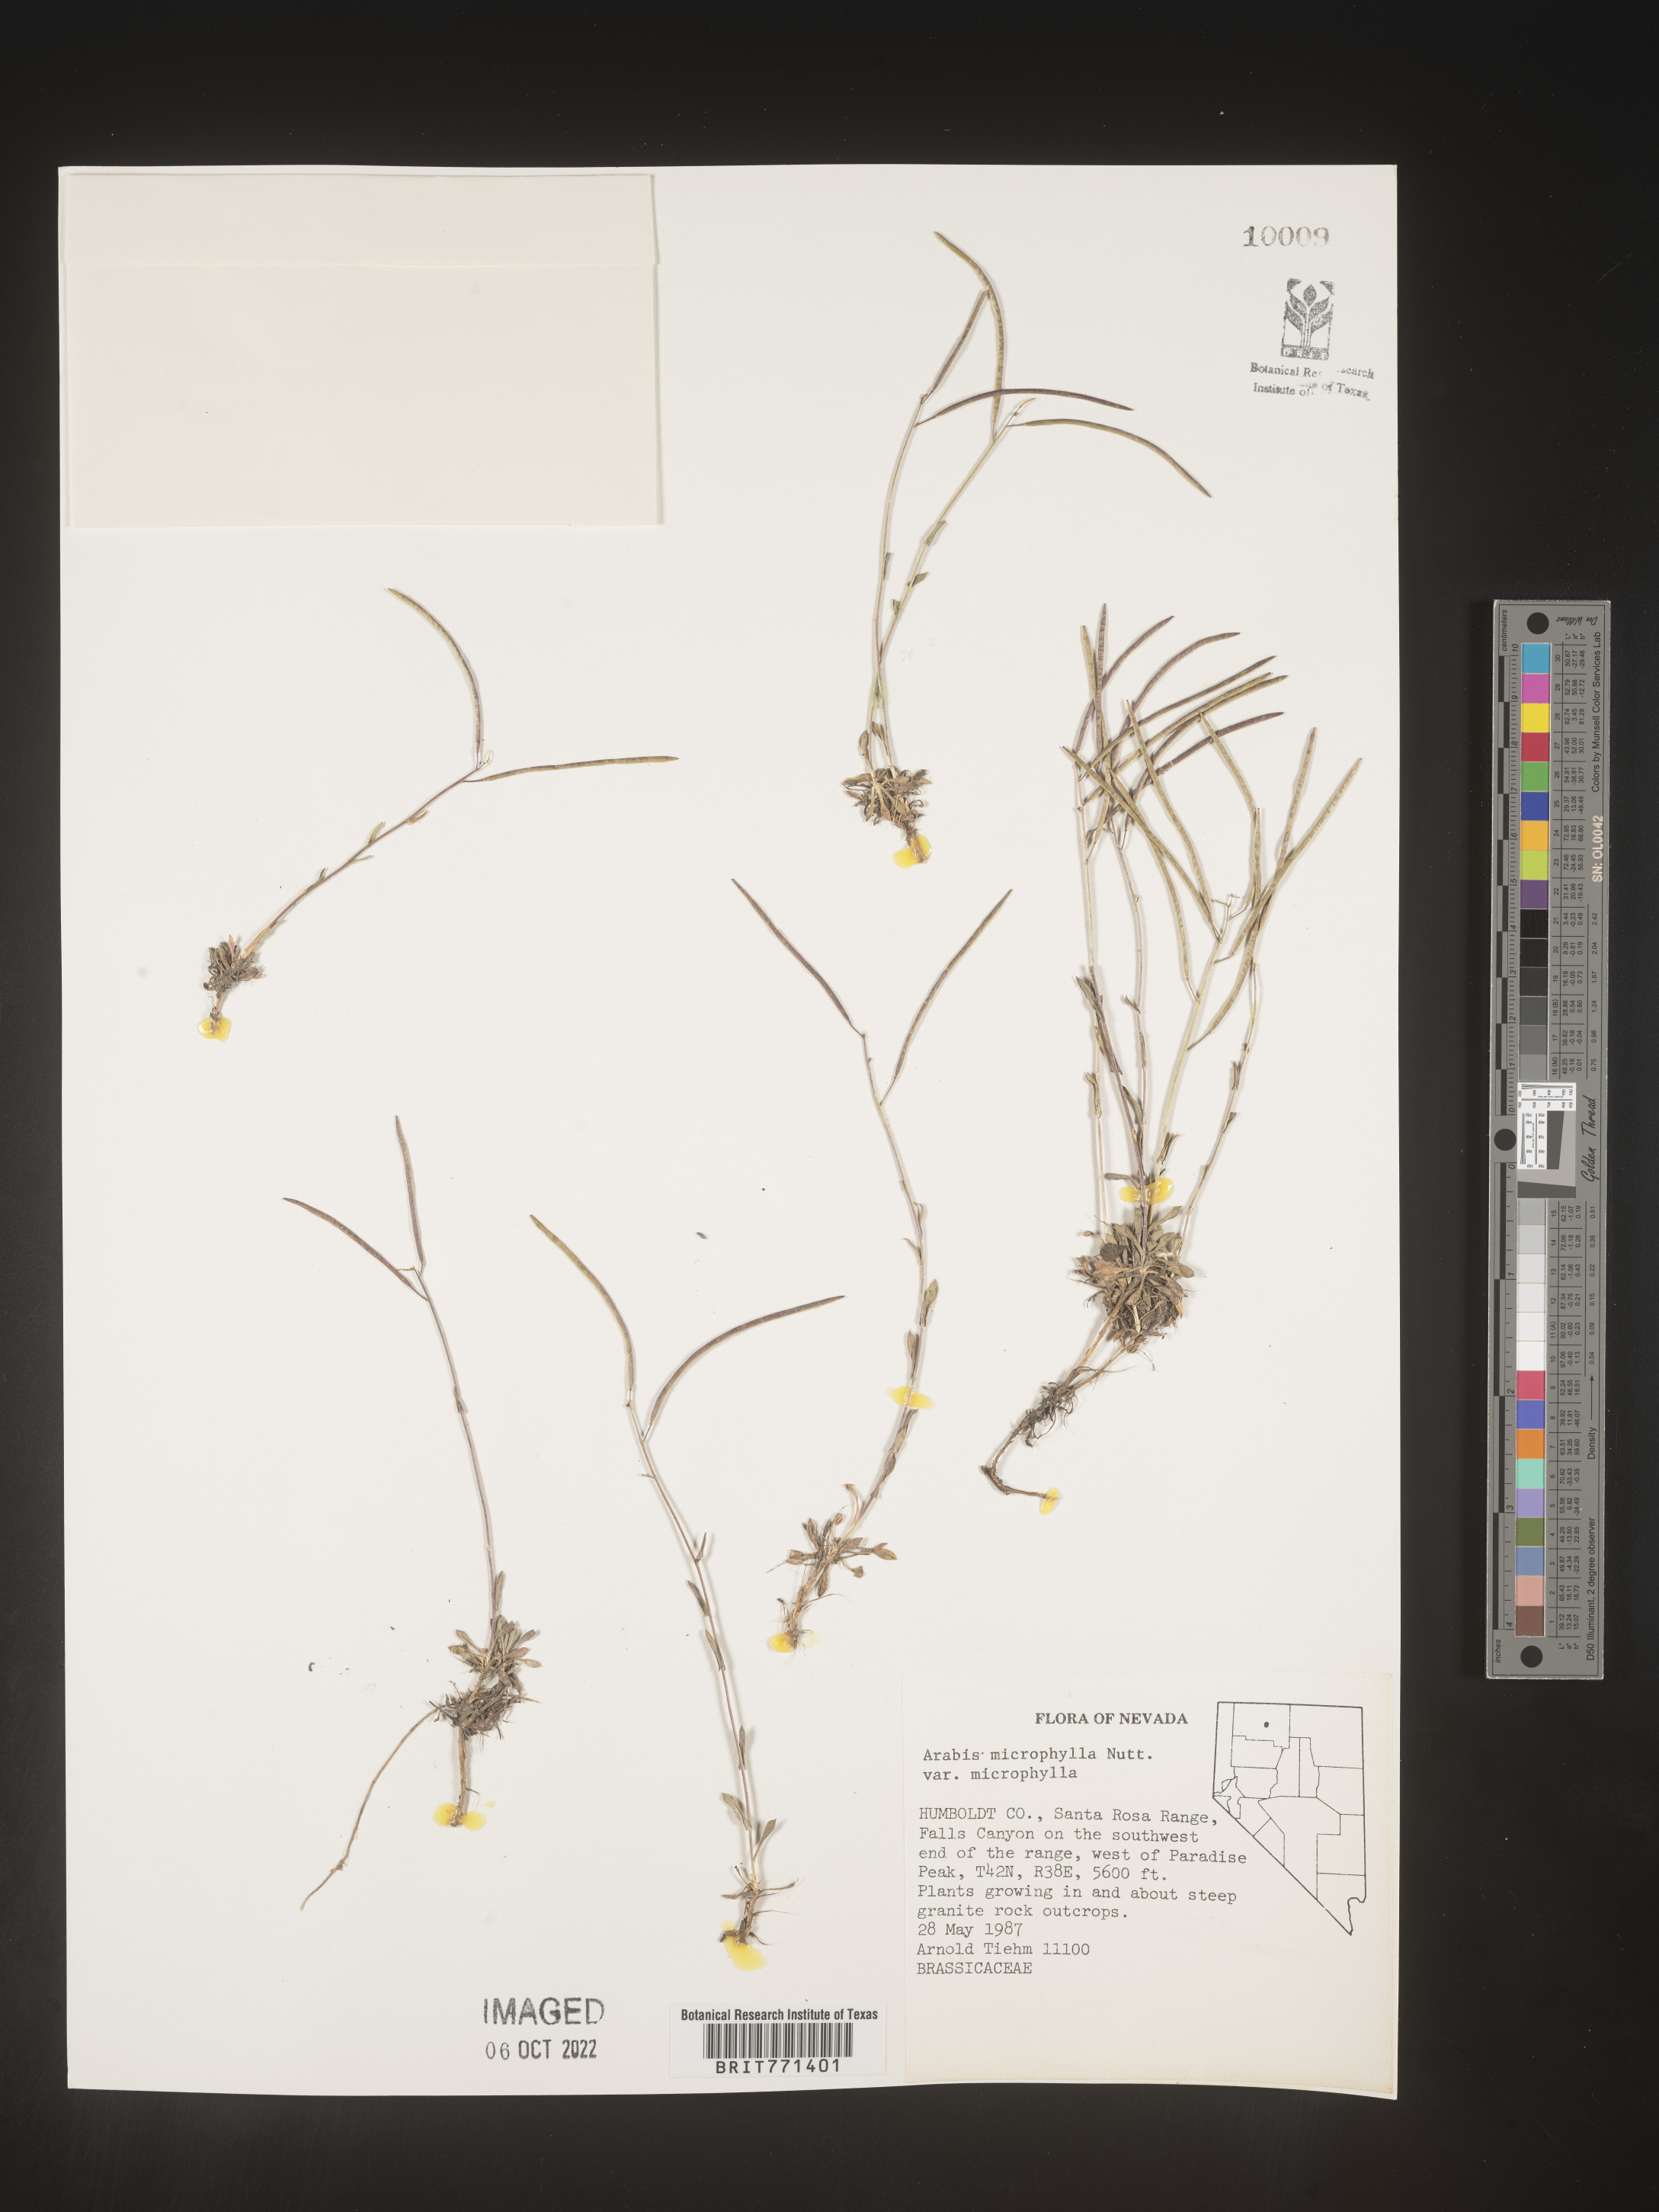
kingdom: Plantae
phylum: Tracheophyta
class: Magnoliopsida
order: Brassicales
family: Brassicaceae
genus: Arabis
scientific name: Arabis
